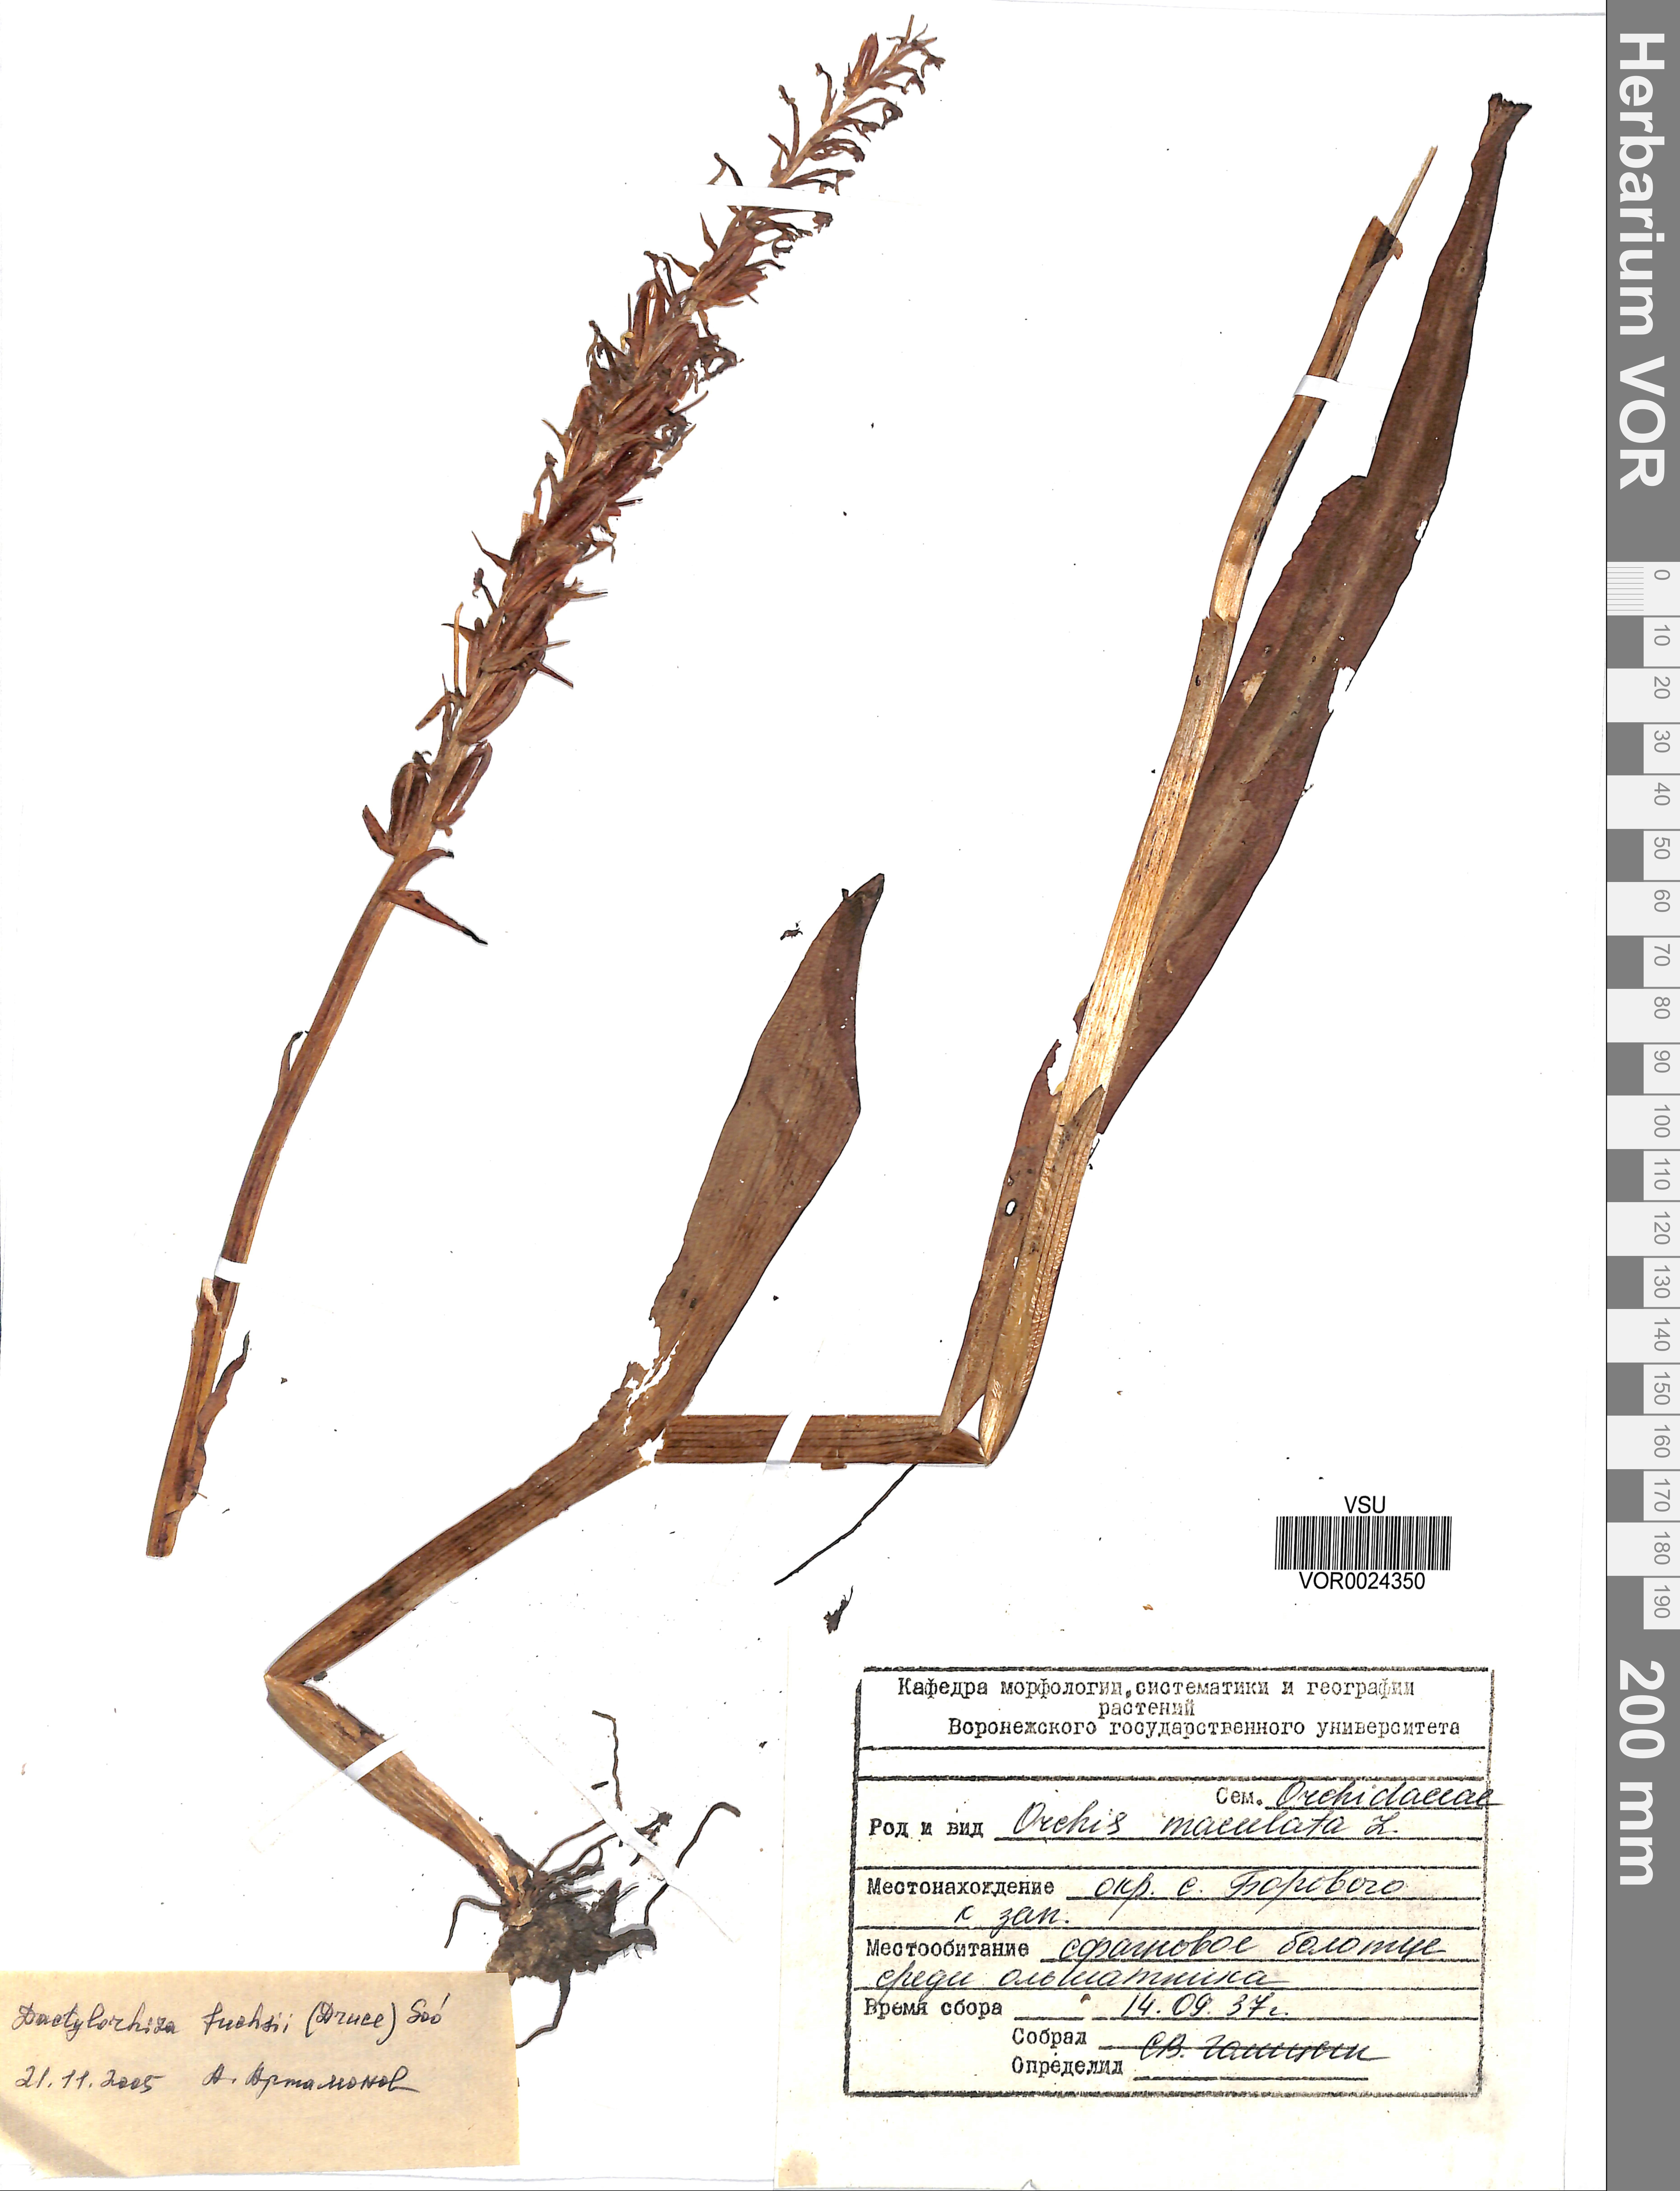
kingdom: Plantae
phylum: Tracheophyta
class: Liliopsida
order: Asparagales
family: Orchidaceae
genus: Dactylorhiza
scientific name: Dactylorhiza maculata
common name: Heath spotted-orchid
